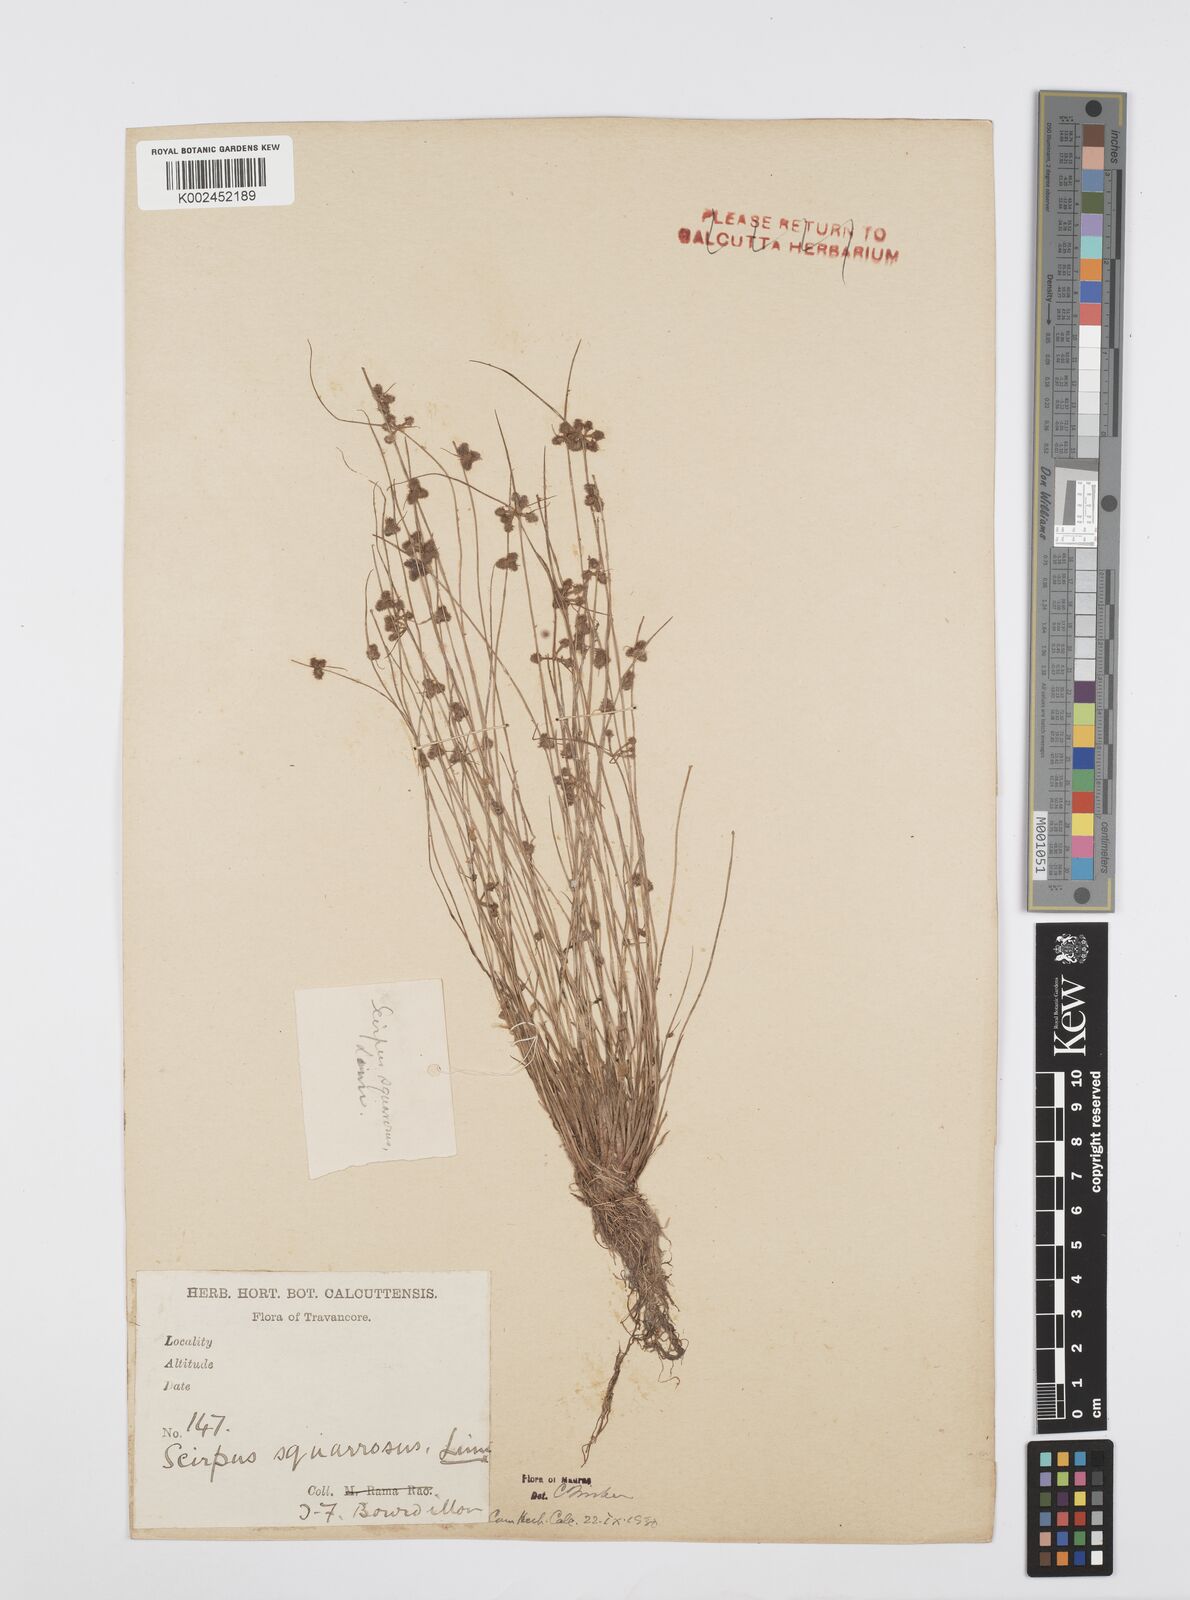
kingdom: Plantae
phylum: Tracheophyta
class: Liliopsida
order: Poales
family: Cyperaceae
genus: Cyperus
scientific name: Cyperus squarrosus
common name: Awned cyperus
